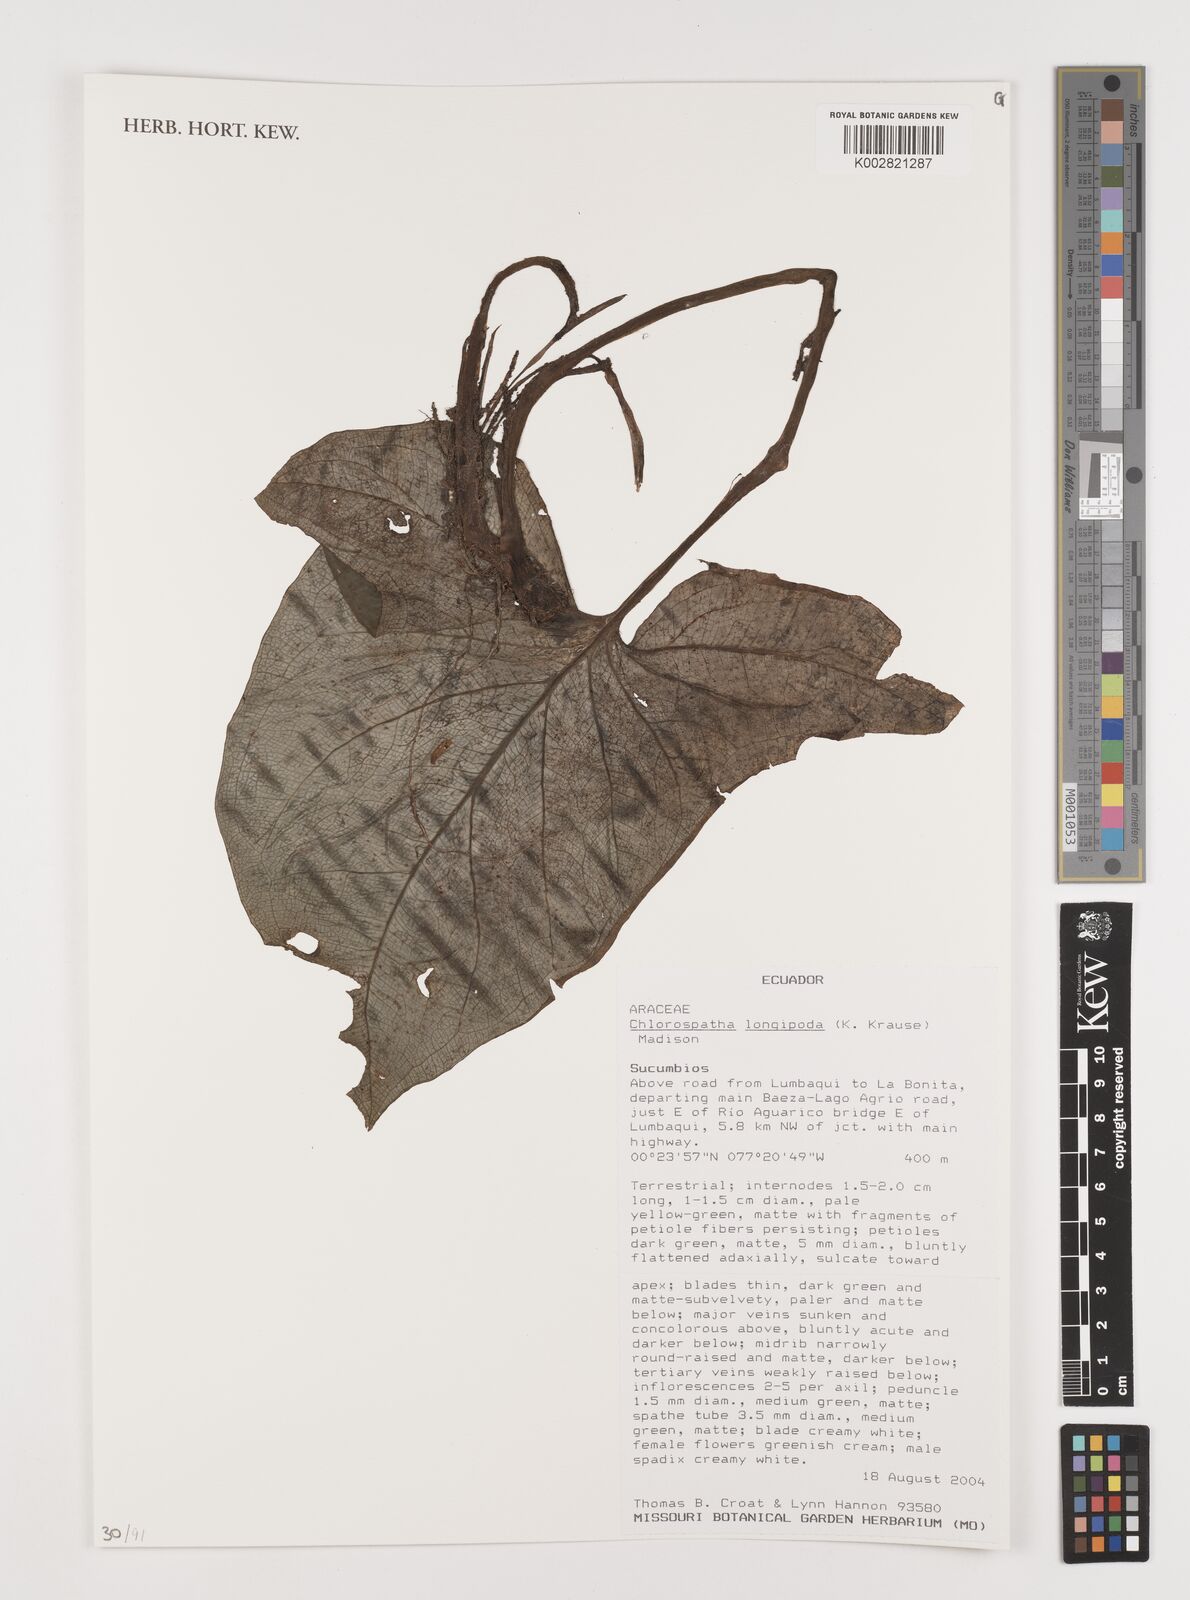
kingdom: Plantae
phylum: Tracheophyta
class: Liliopsida
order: Alismatales
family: Araceae
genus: Chlorospatha
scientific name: Chlorospatha longipoda
